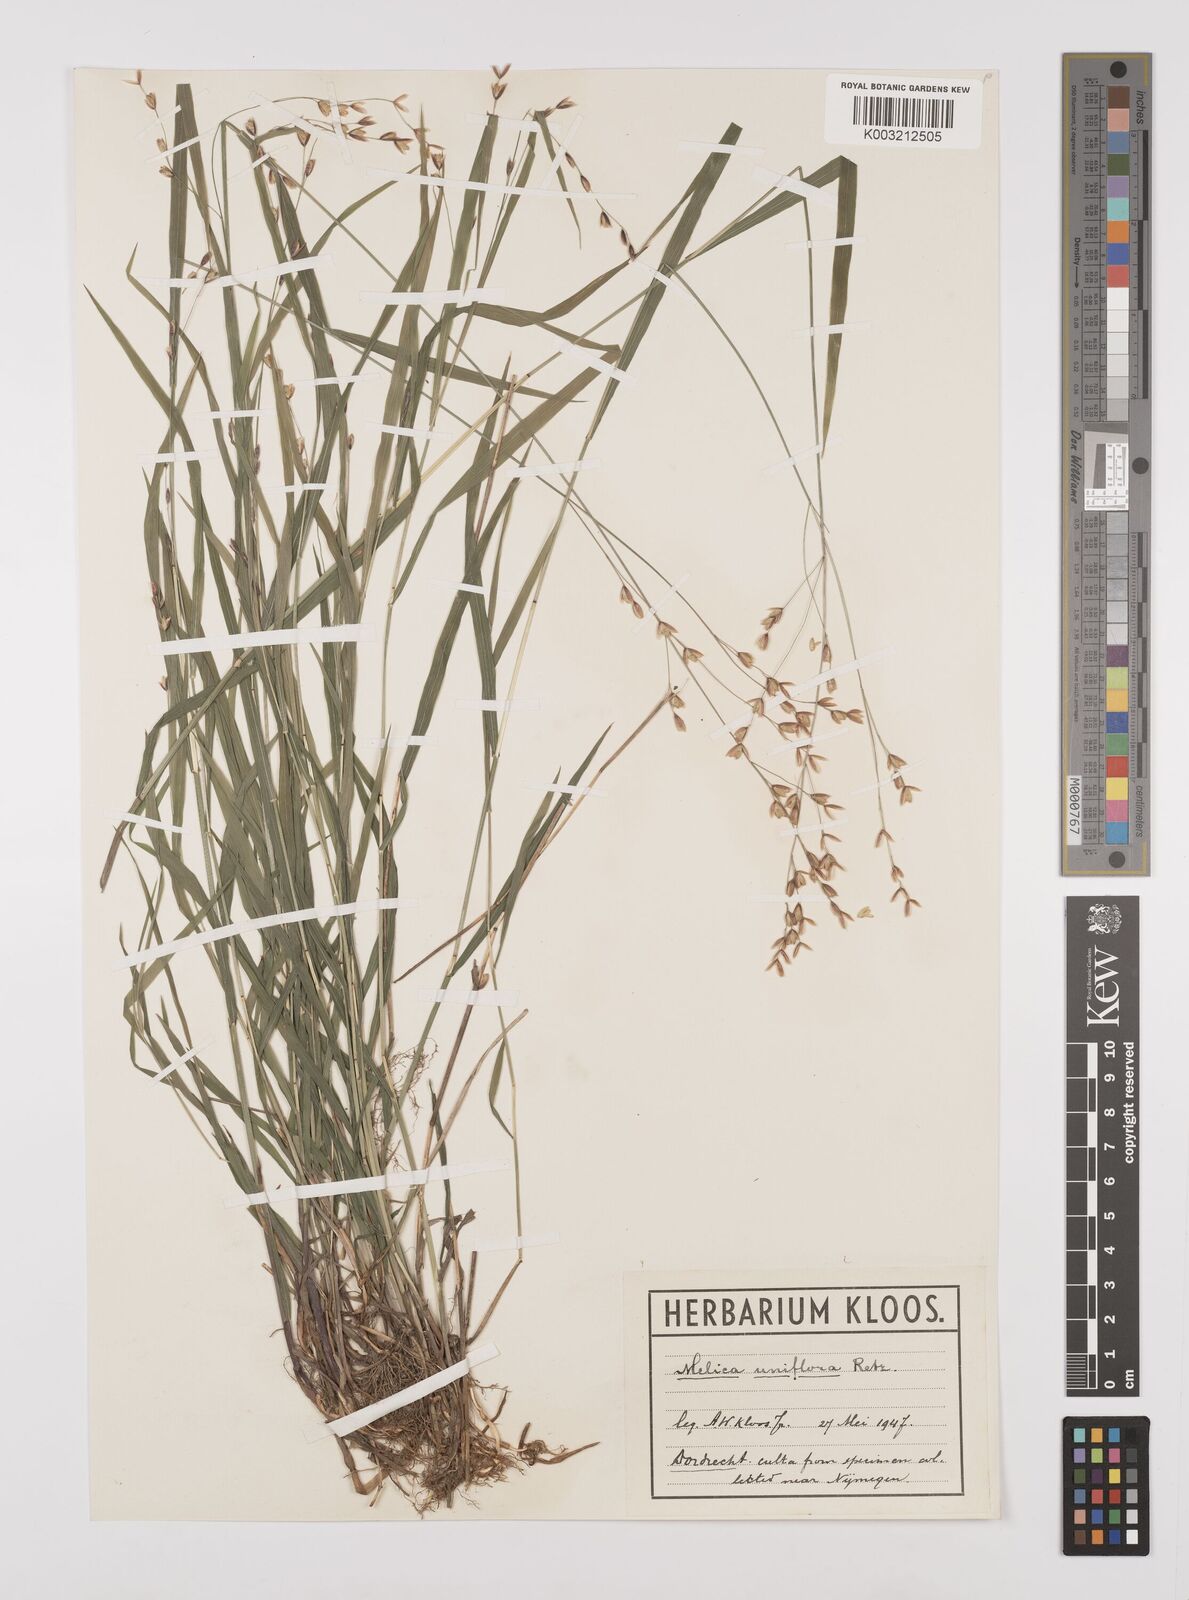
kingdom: Plantae
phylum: Tracheophyta
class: Liliopsida
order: Poales
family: Poaceae
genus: Melica
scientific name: Melica uniflora
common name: Wood melick
